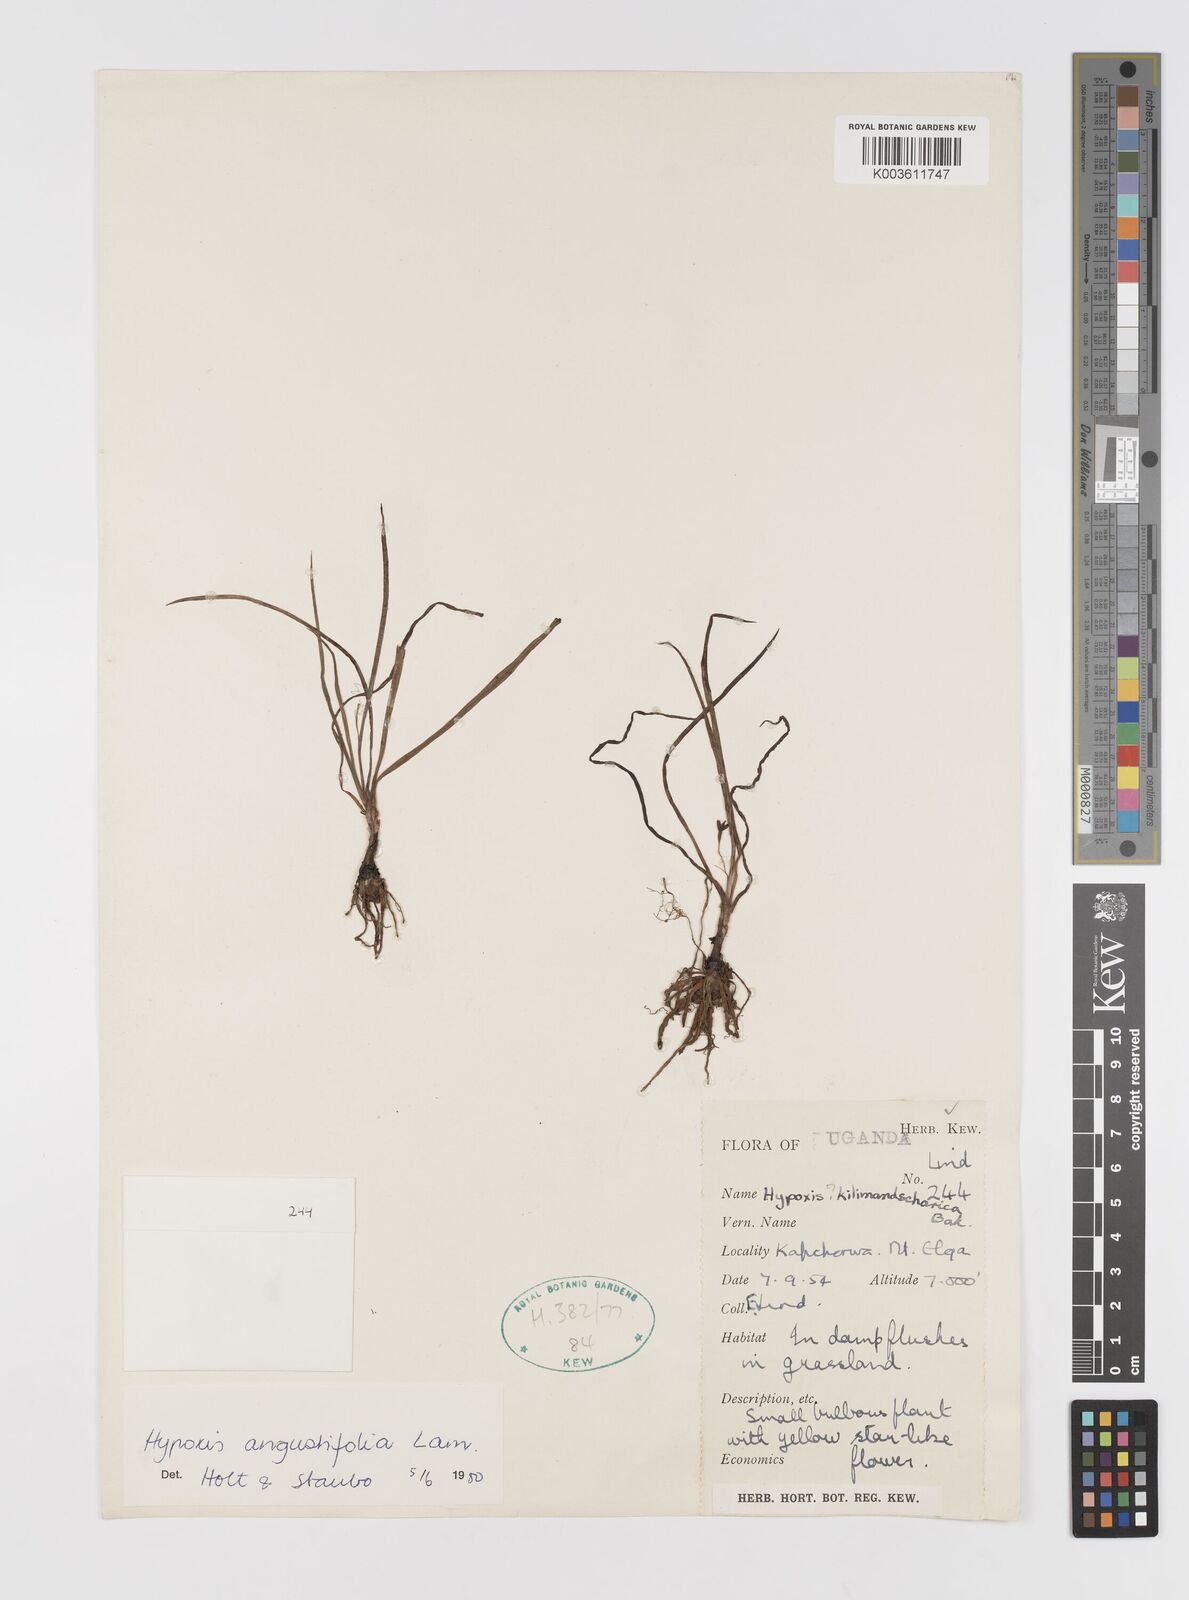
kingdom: Plantae
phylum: Tracheophyta
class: Liliopsida
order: Asparagales
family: Hypoxidaceae
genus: Hypoxis
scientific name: Hypoxis angustifolia
